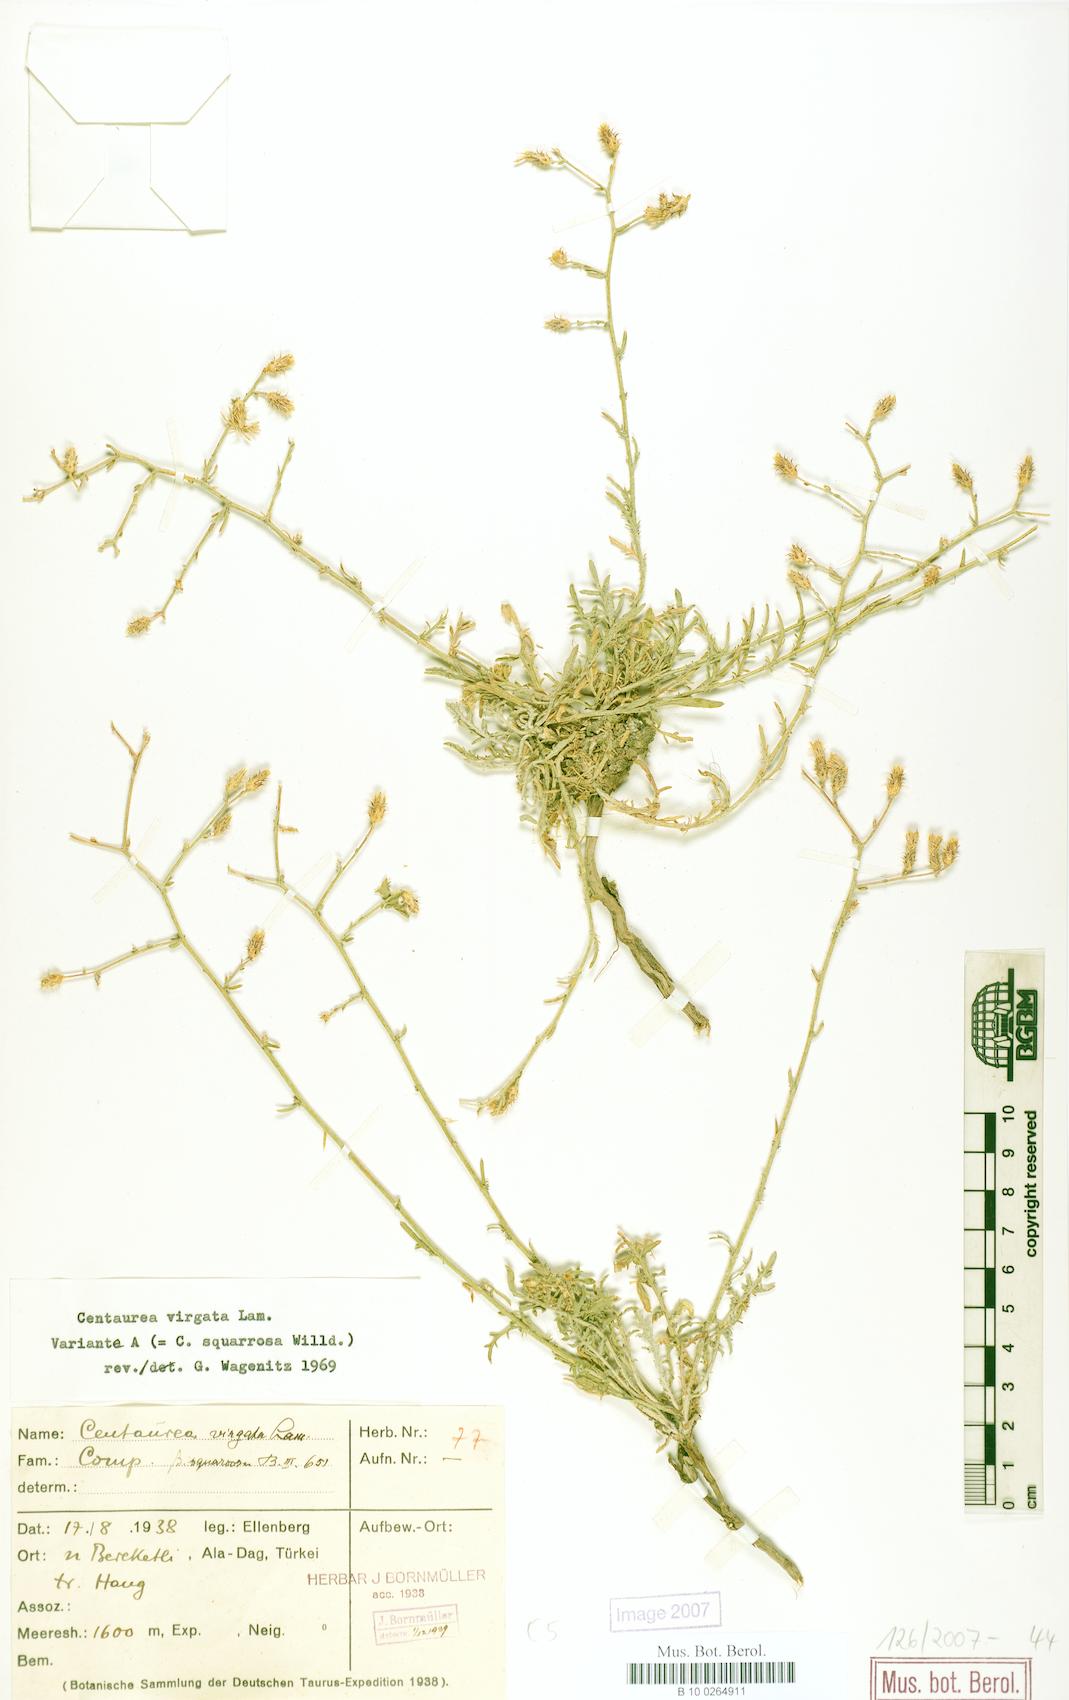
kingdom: Plantae
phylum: Tracheophyta
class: Magnoliopsida
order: Asterales
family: Asteraceae
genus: Centaurea
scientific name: Centaurea virgata
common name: Squarrose knapweed
